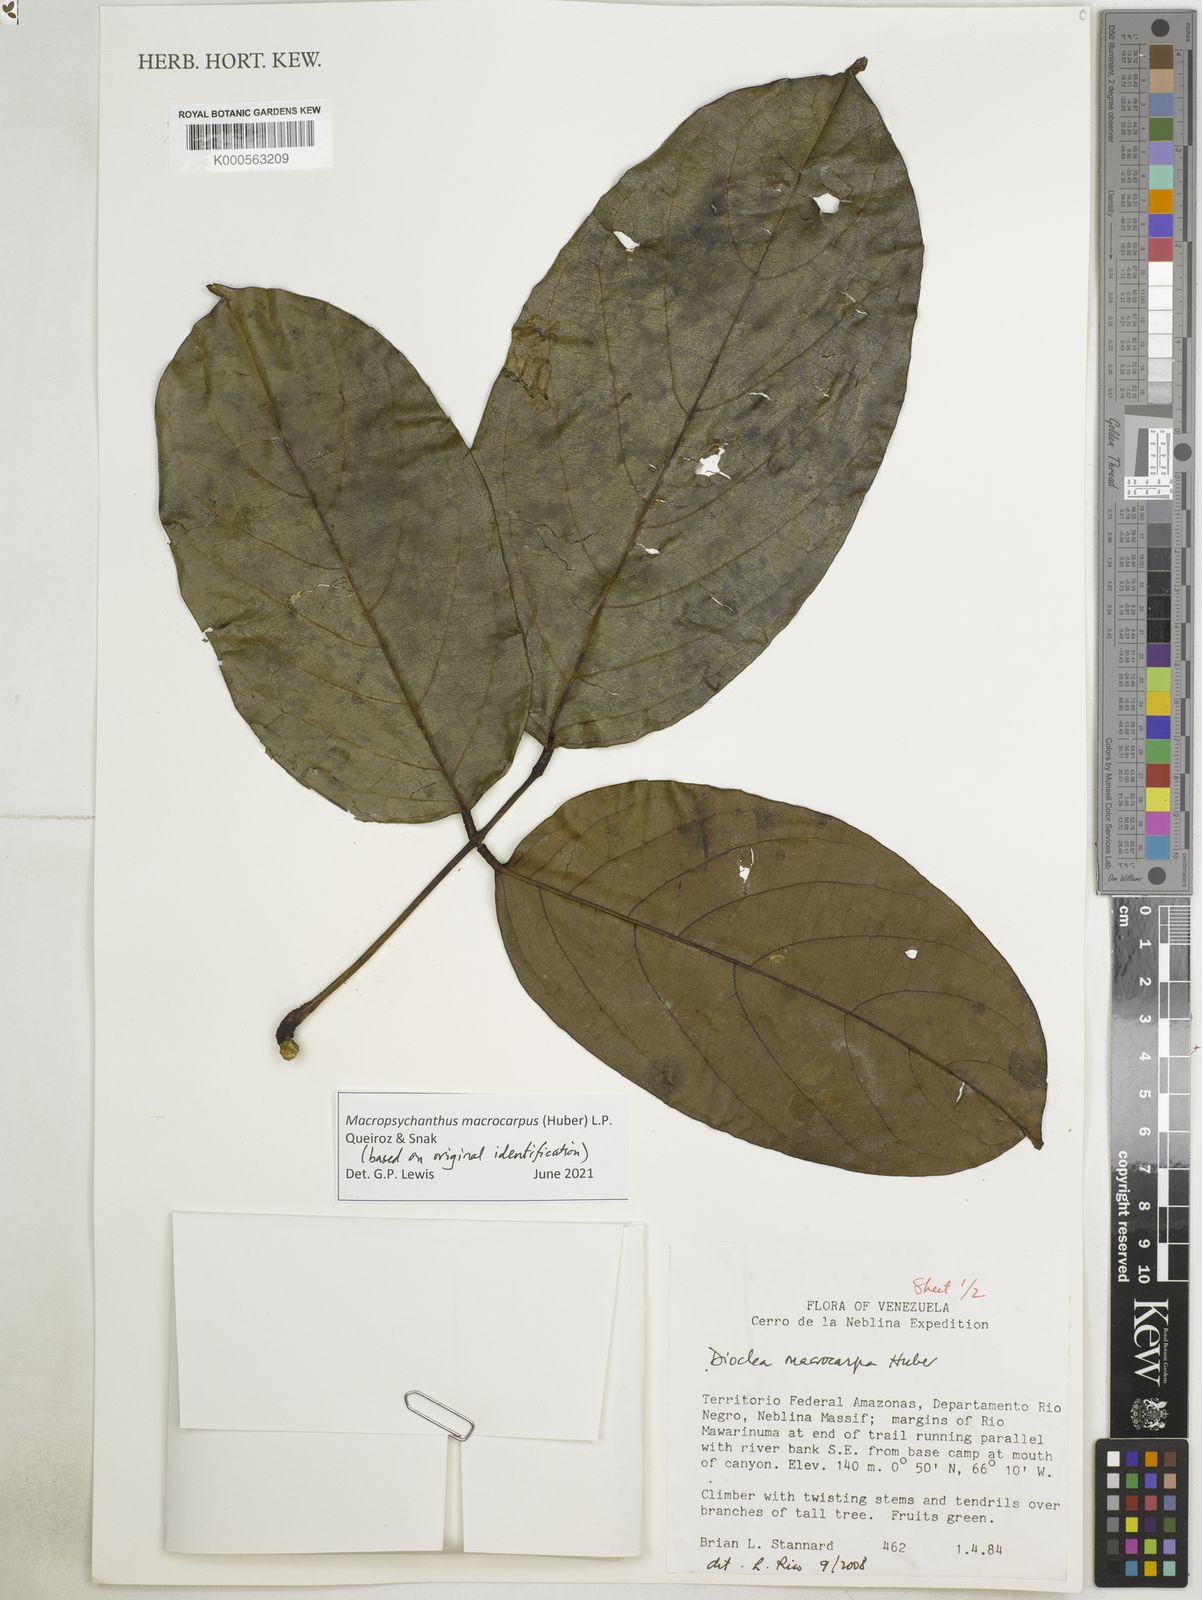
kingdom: Plantae
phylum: Tracheophyta
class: Magnoliopsida
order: Fabales
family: Fabaceae
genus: Macropsychanthus
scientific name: Macropsychanthus
